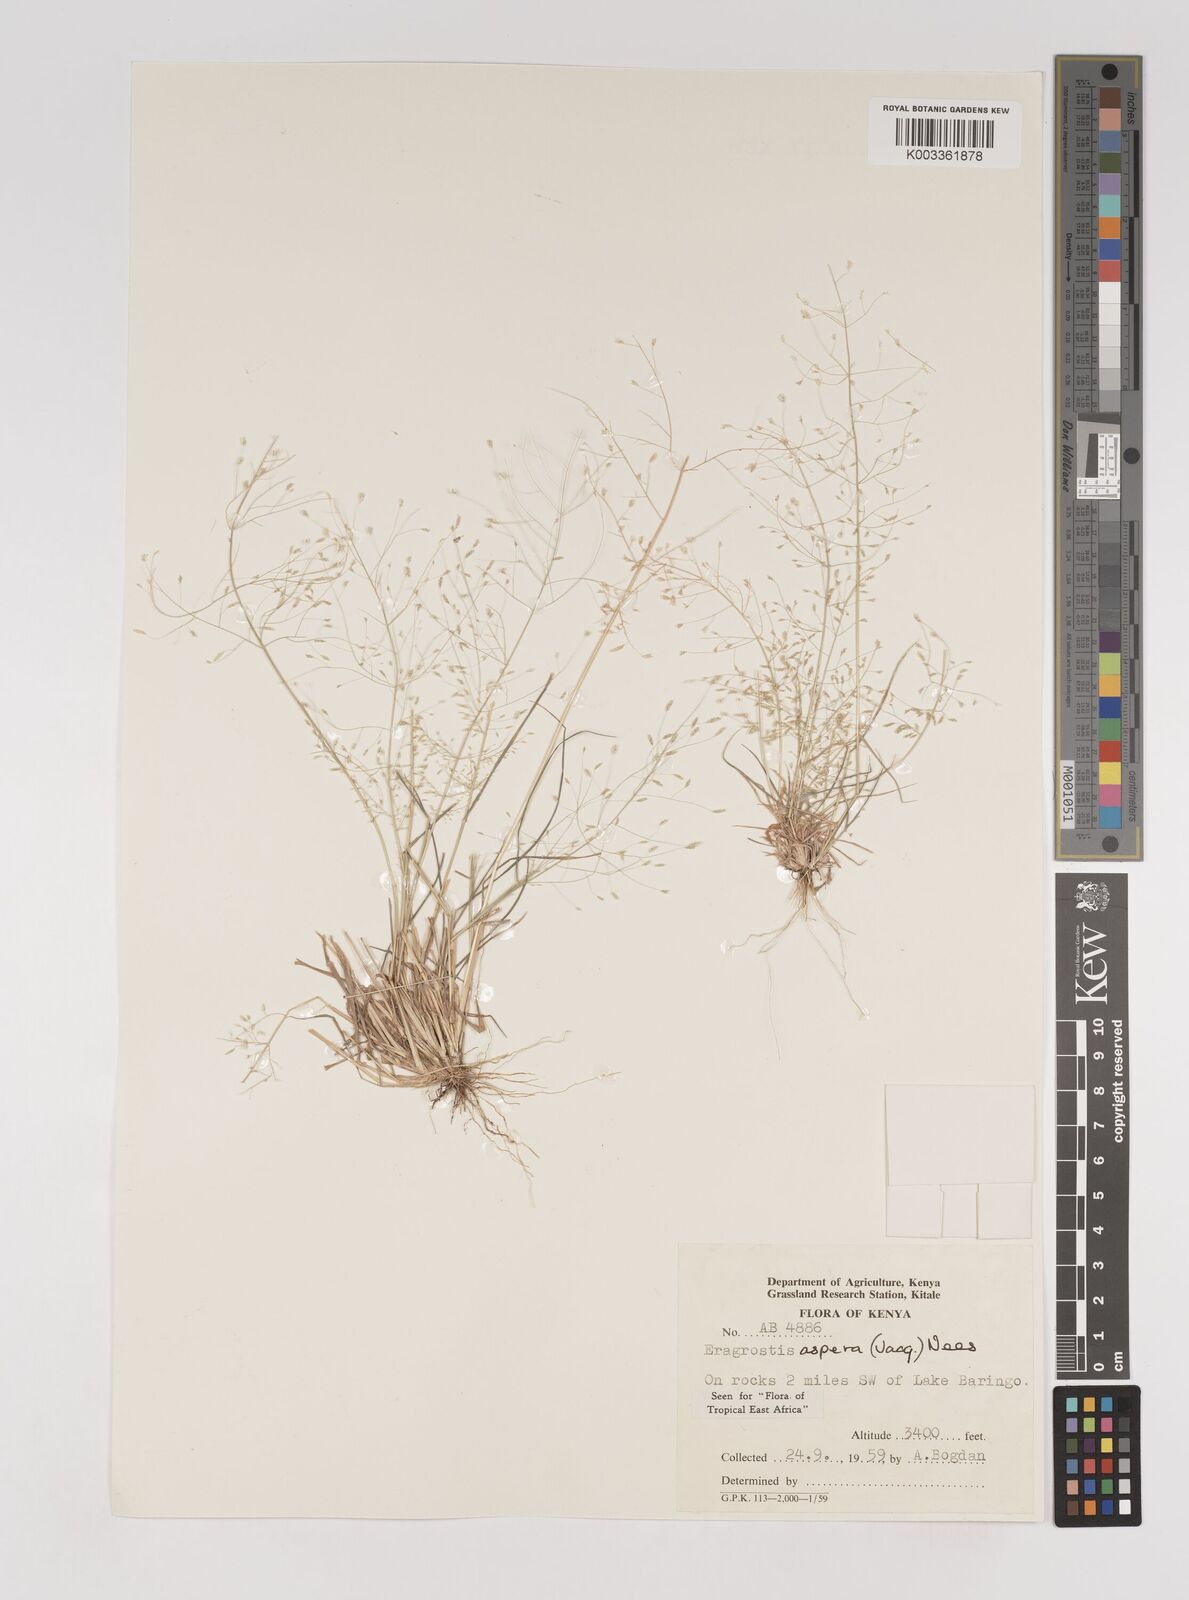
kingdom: Plantae
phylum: Tracheophyta
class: Liliopsida
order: Poales
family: Poaceae
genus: Eragrostis
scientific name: Eragrostis aspera
